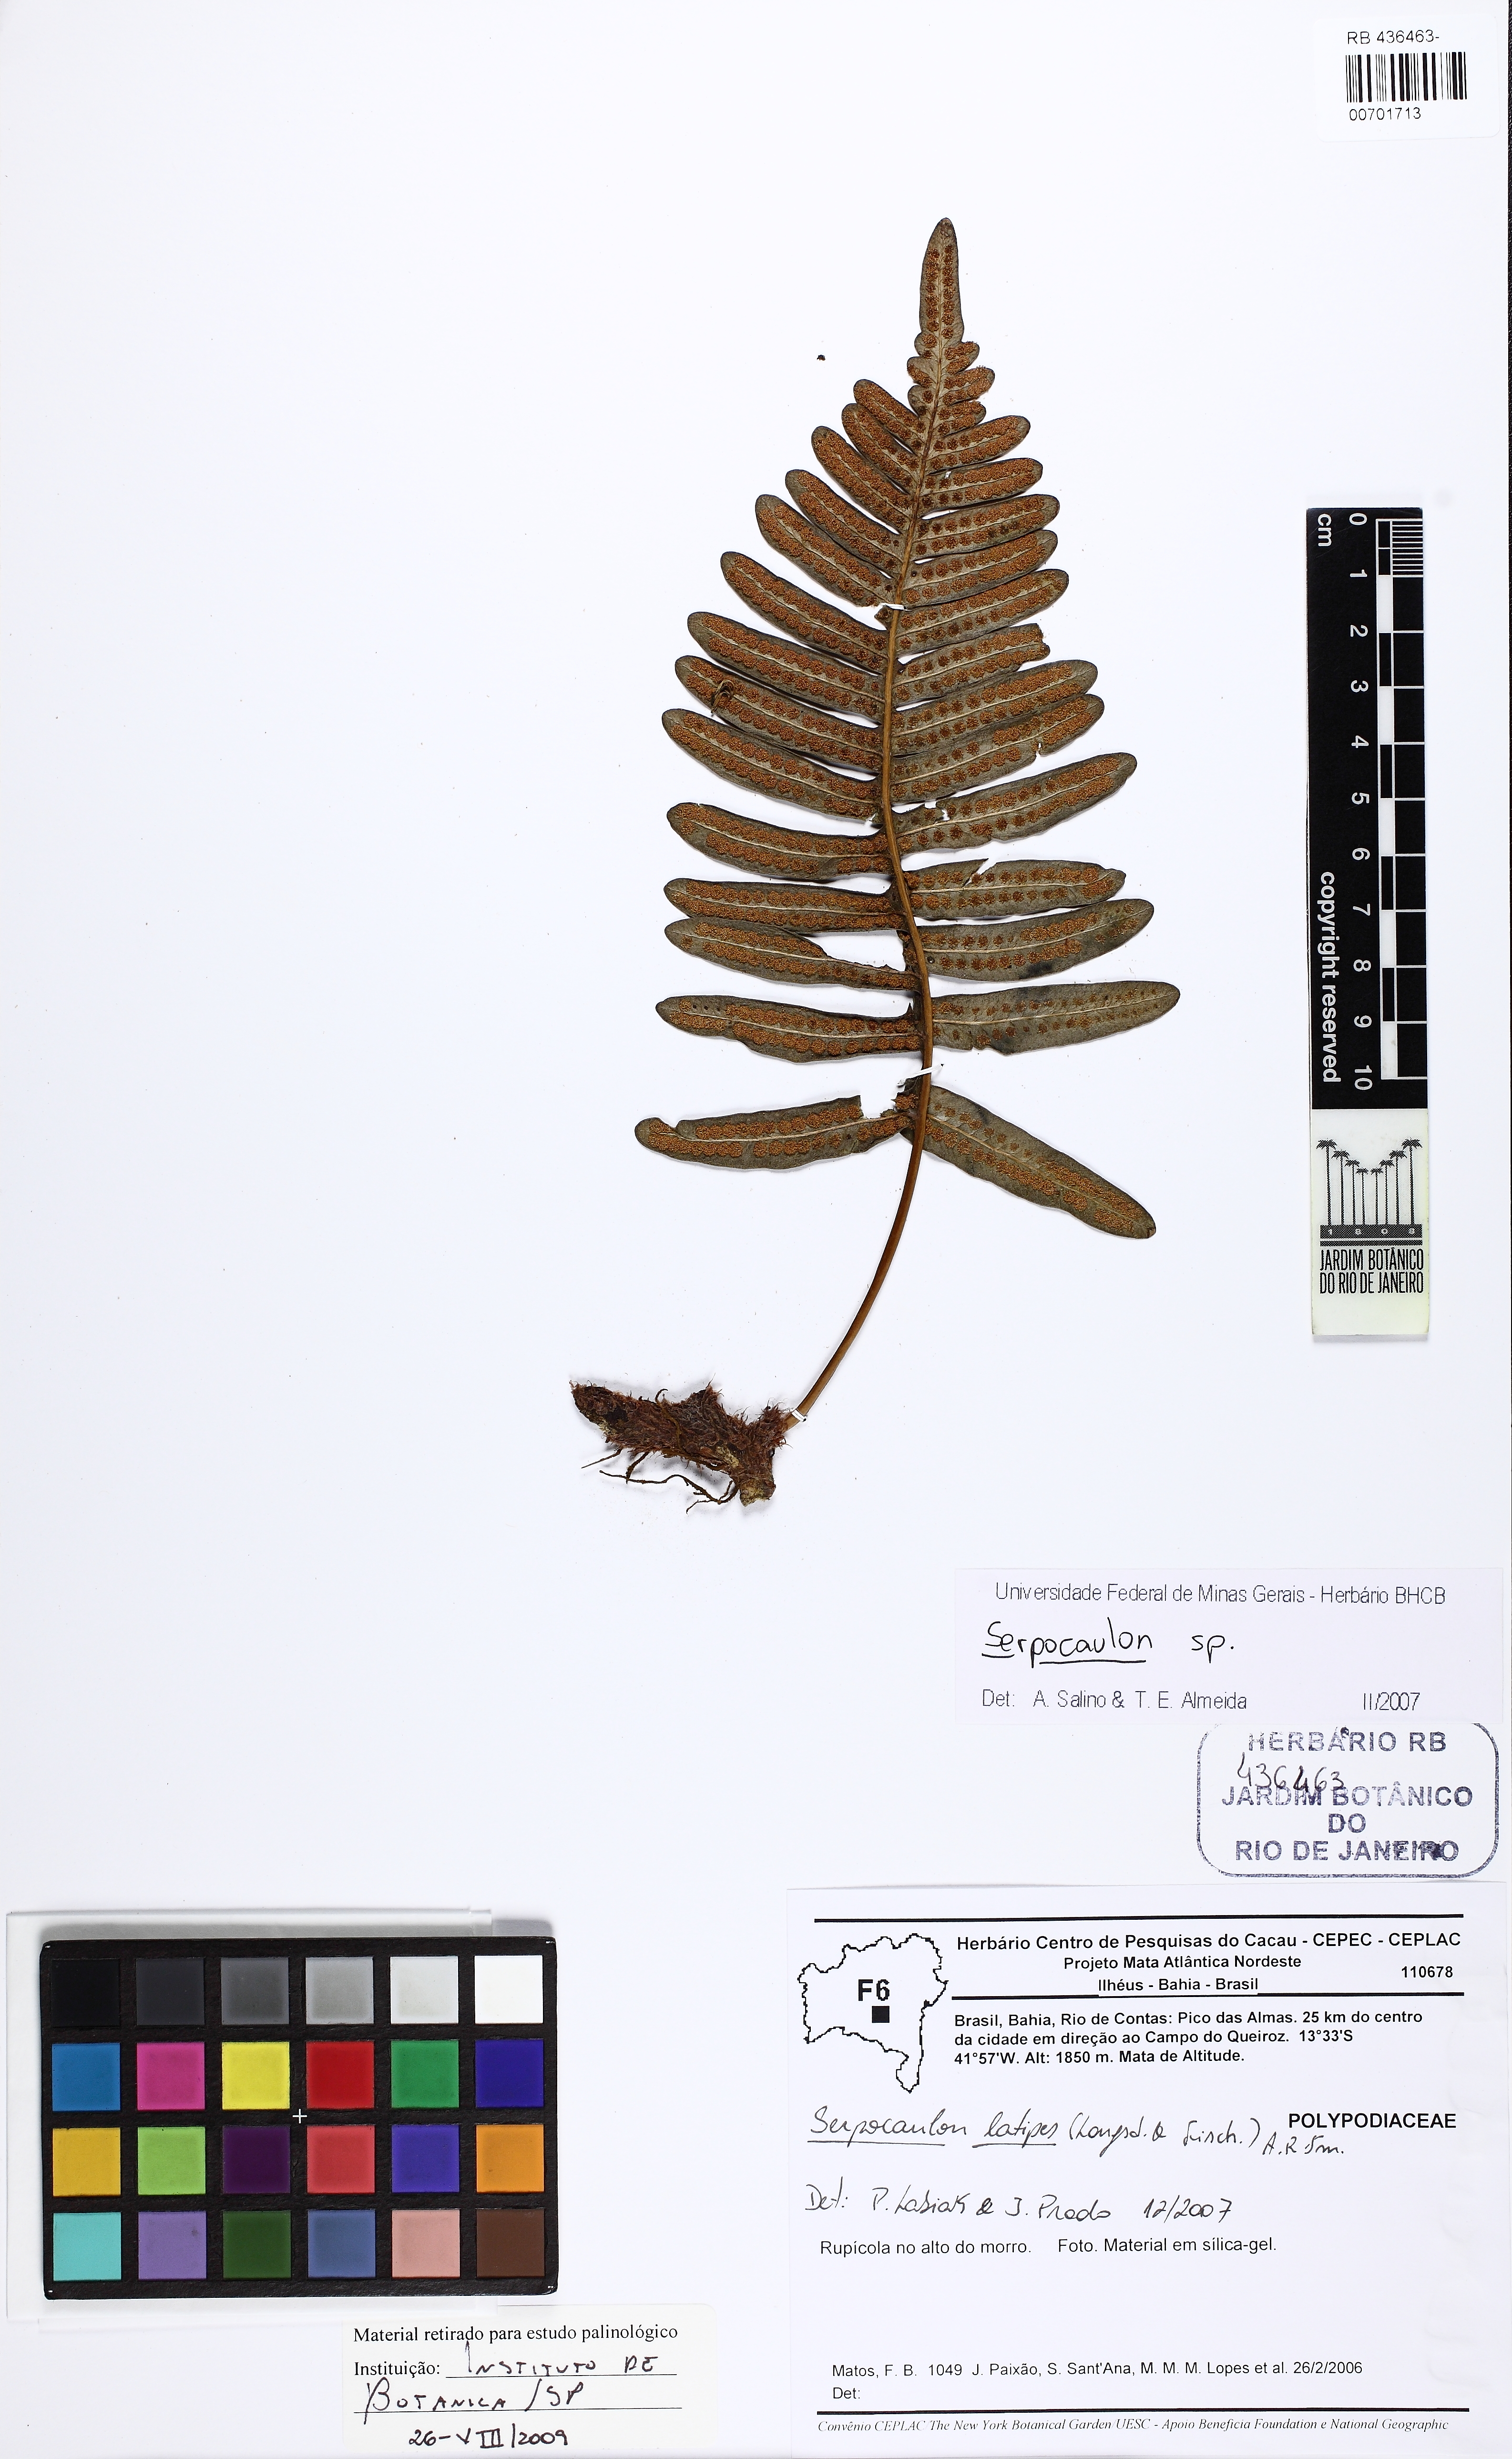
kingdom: Plantae
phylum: Tracheophyta
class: Polypodiopsida
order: Polypodiales
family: Polypodiaceae
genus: Serpocaulon
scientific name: Serpocaulon
